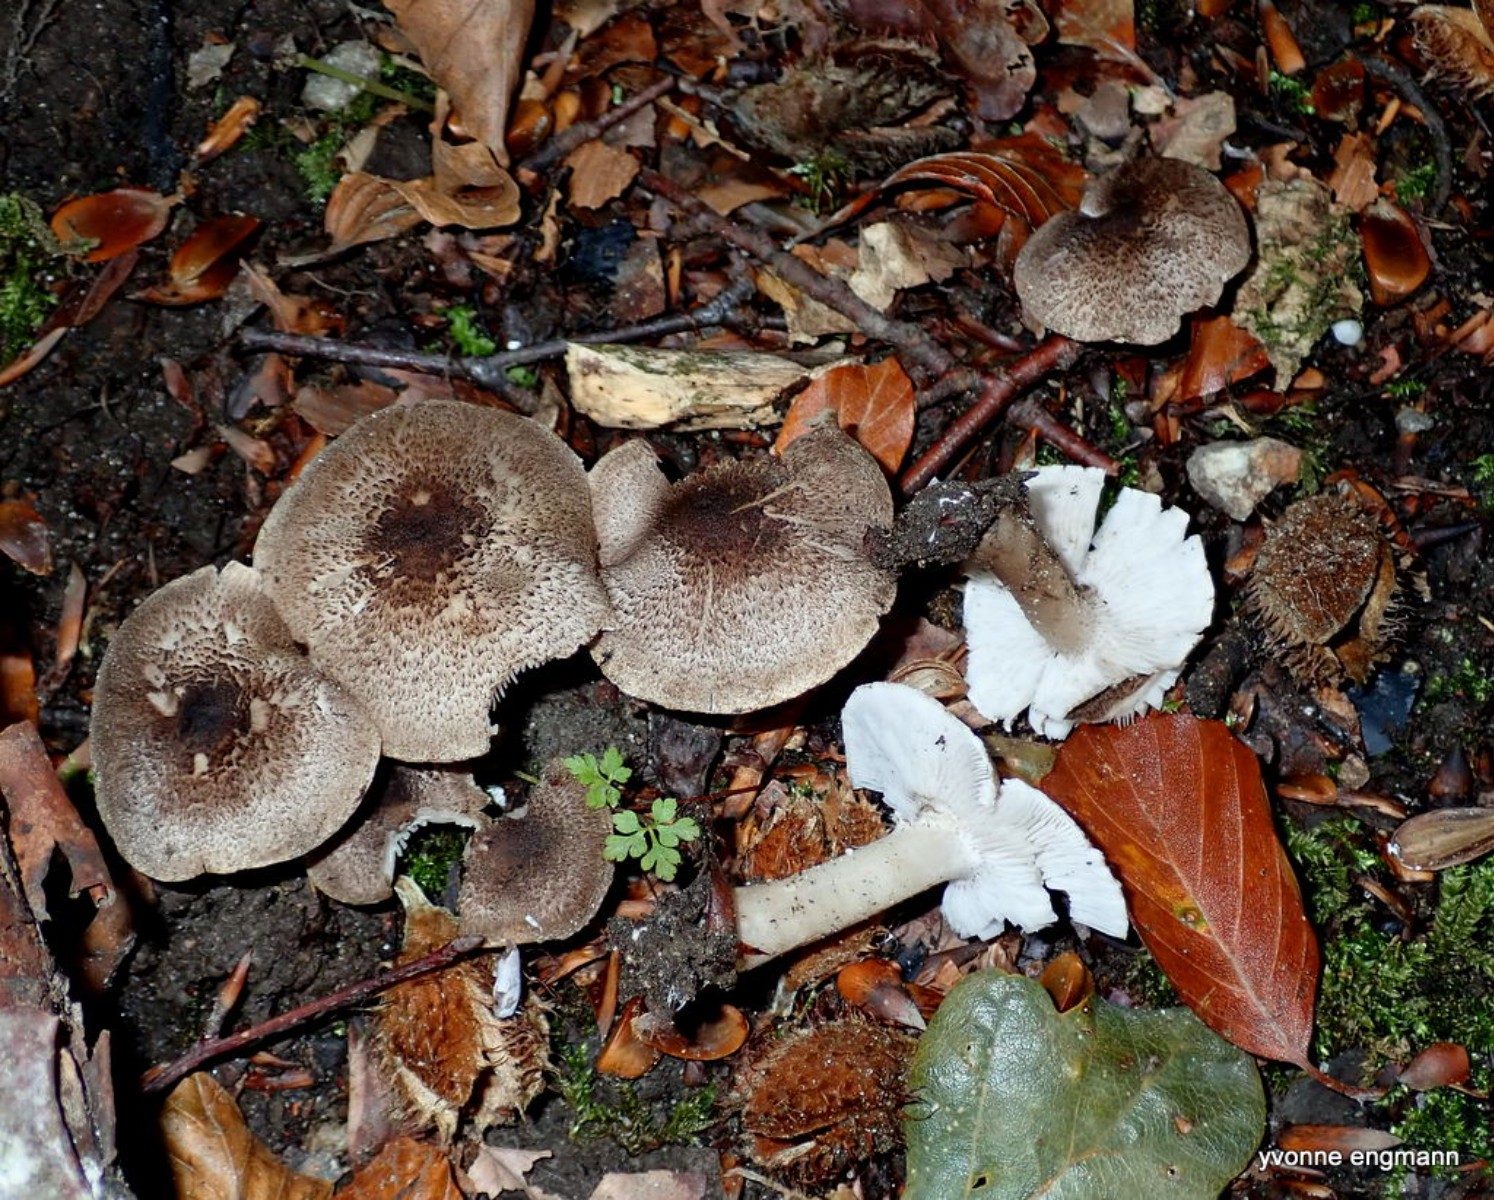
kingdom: Fungi
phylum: Basidiomycota
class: Agaricomycetes
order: Agaricales
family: Tricholomataceae
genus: Tricholoma
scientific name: Tricholoma scalpturatum
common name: gulplettet ridderhat
